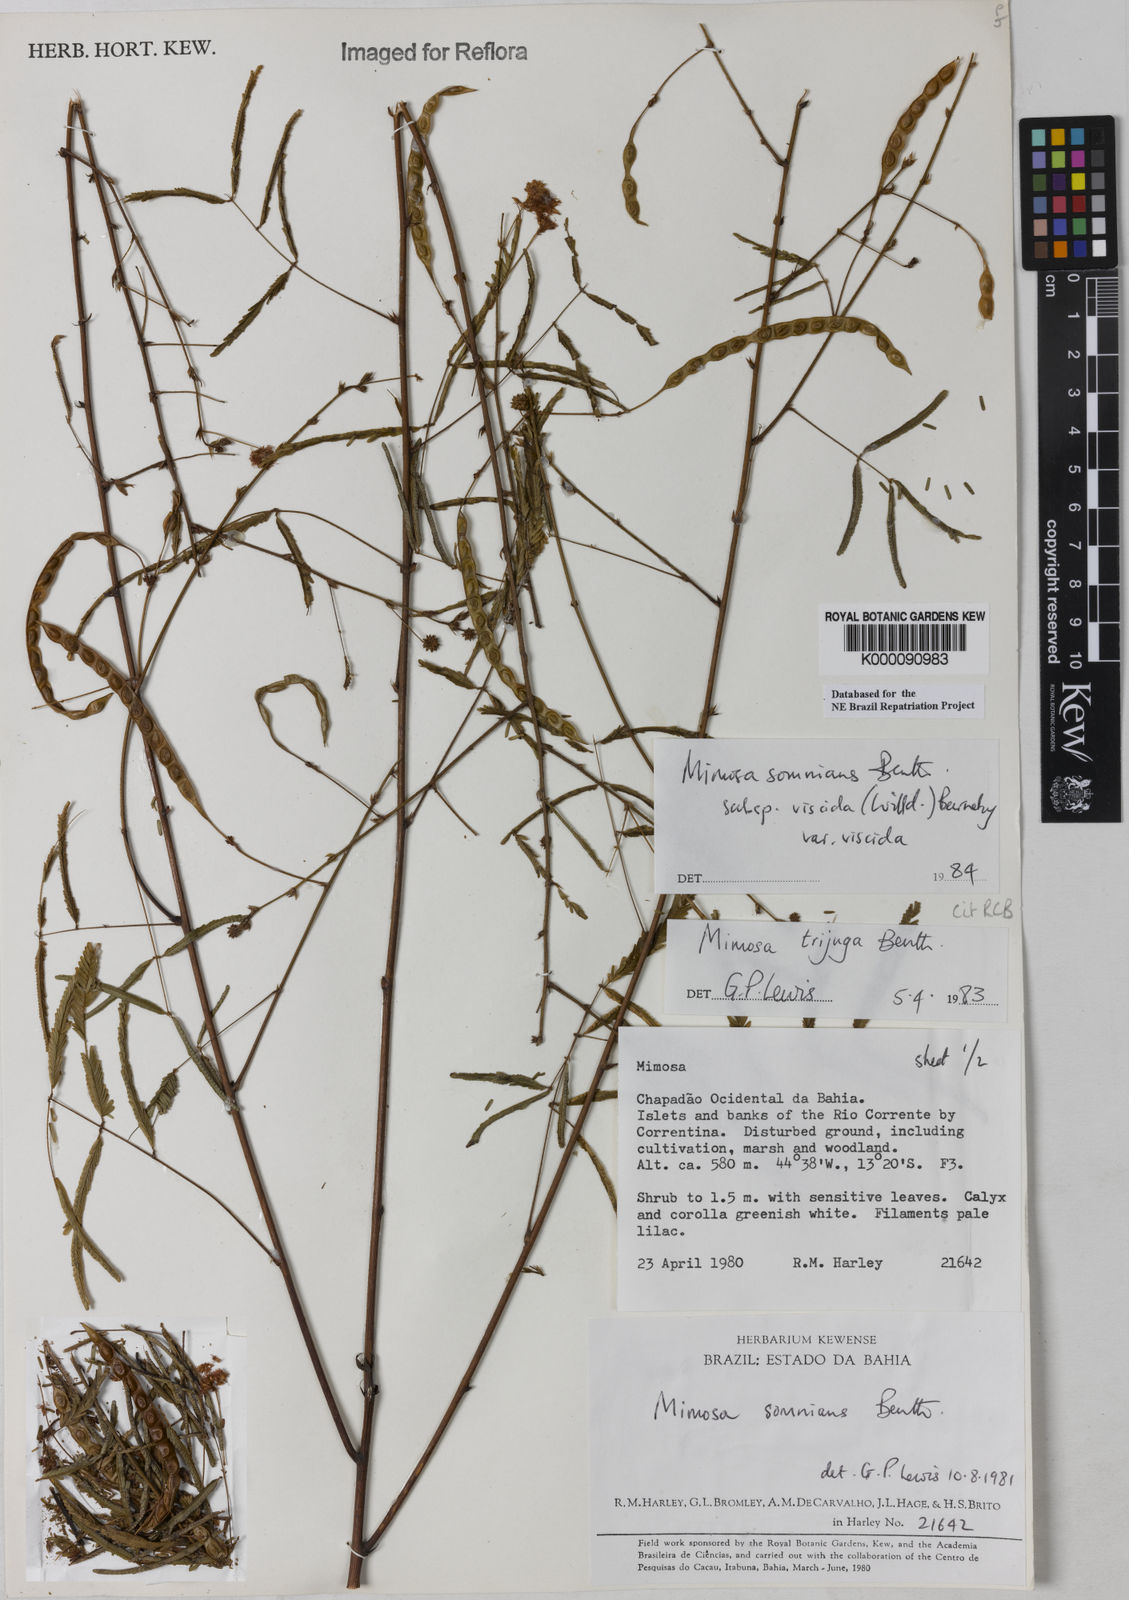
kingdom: Plantae
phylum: Tracheophyta
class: Magnoliopsida
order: Fabales
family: Fabaceae
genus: Mimosa
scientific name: Mimosa somnians
